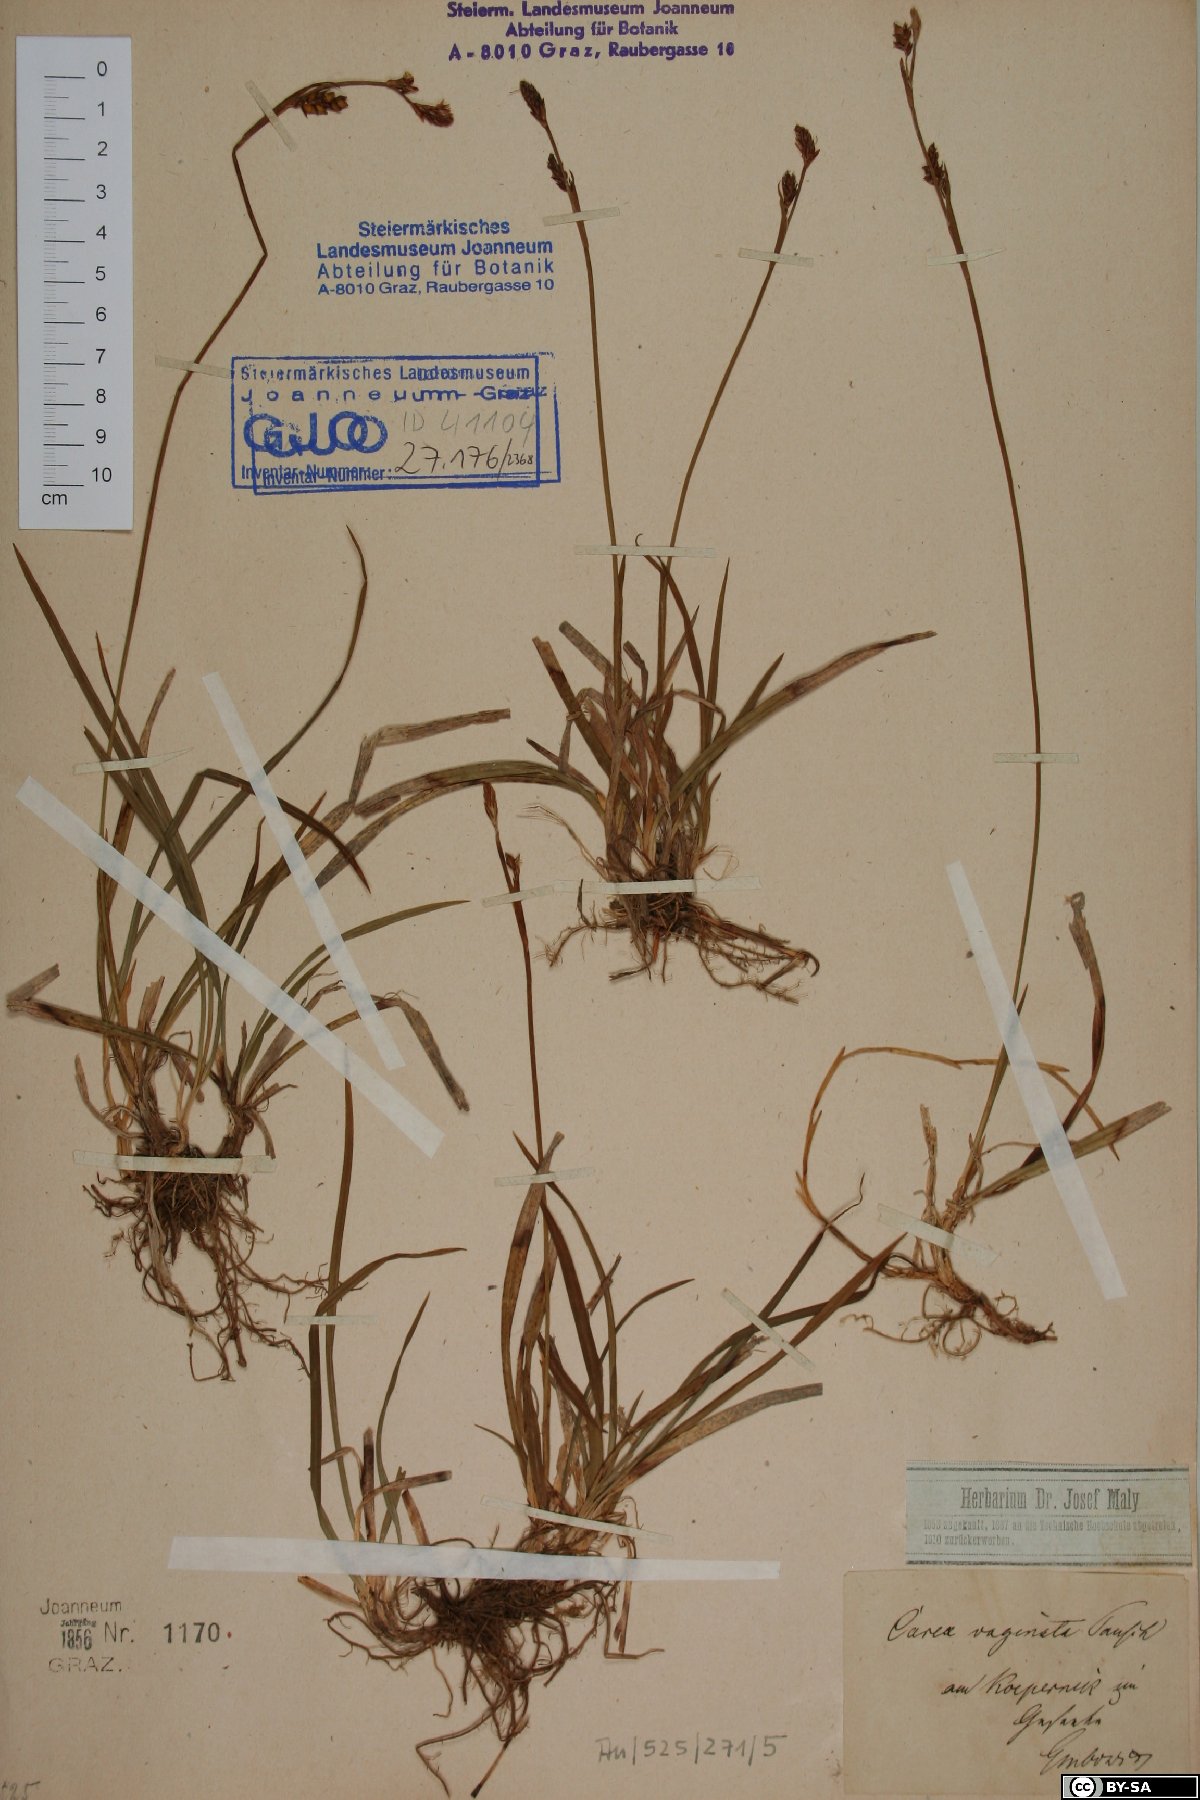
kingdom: Plantae
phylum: Tracheophyta
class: Liliopsida
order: Poales
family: Cyperaceae
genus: Carex
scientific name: Carex vaginata
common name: Sheathed sedge
